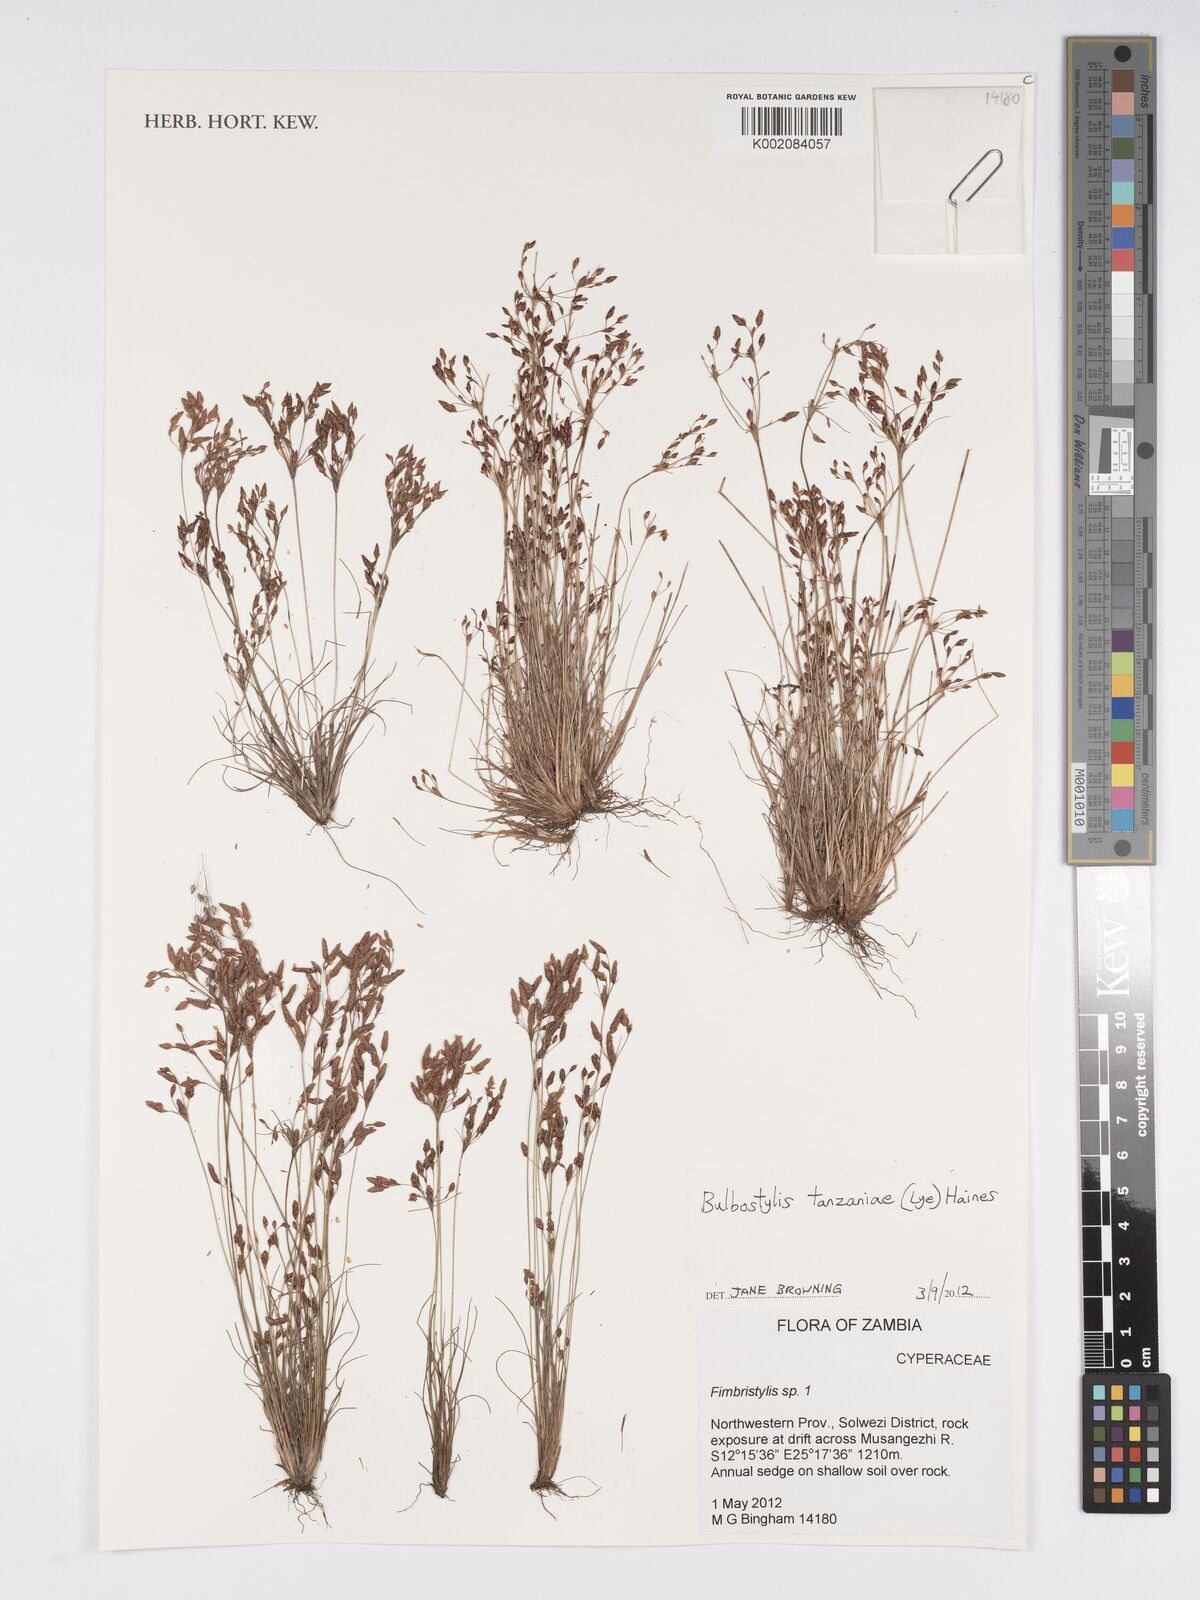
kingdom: Plantae
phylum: Tracheophyta
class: Liliopsida
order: Poales
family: Cyperaceae
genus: Bulbostylis
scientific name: Bulbostylis tanzaniae
